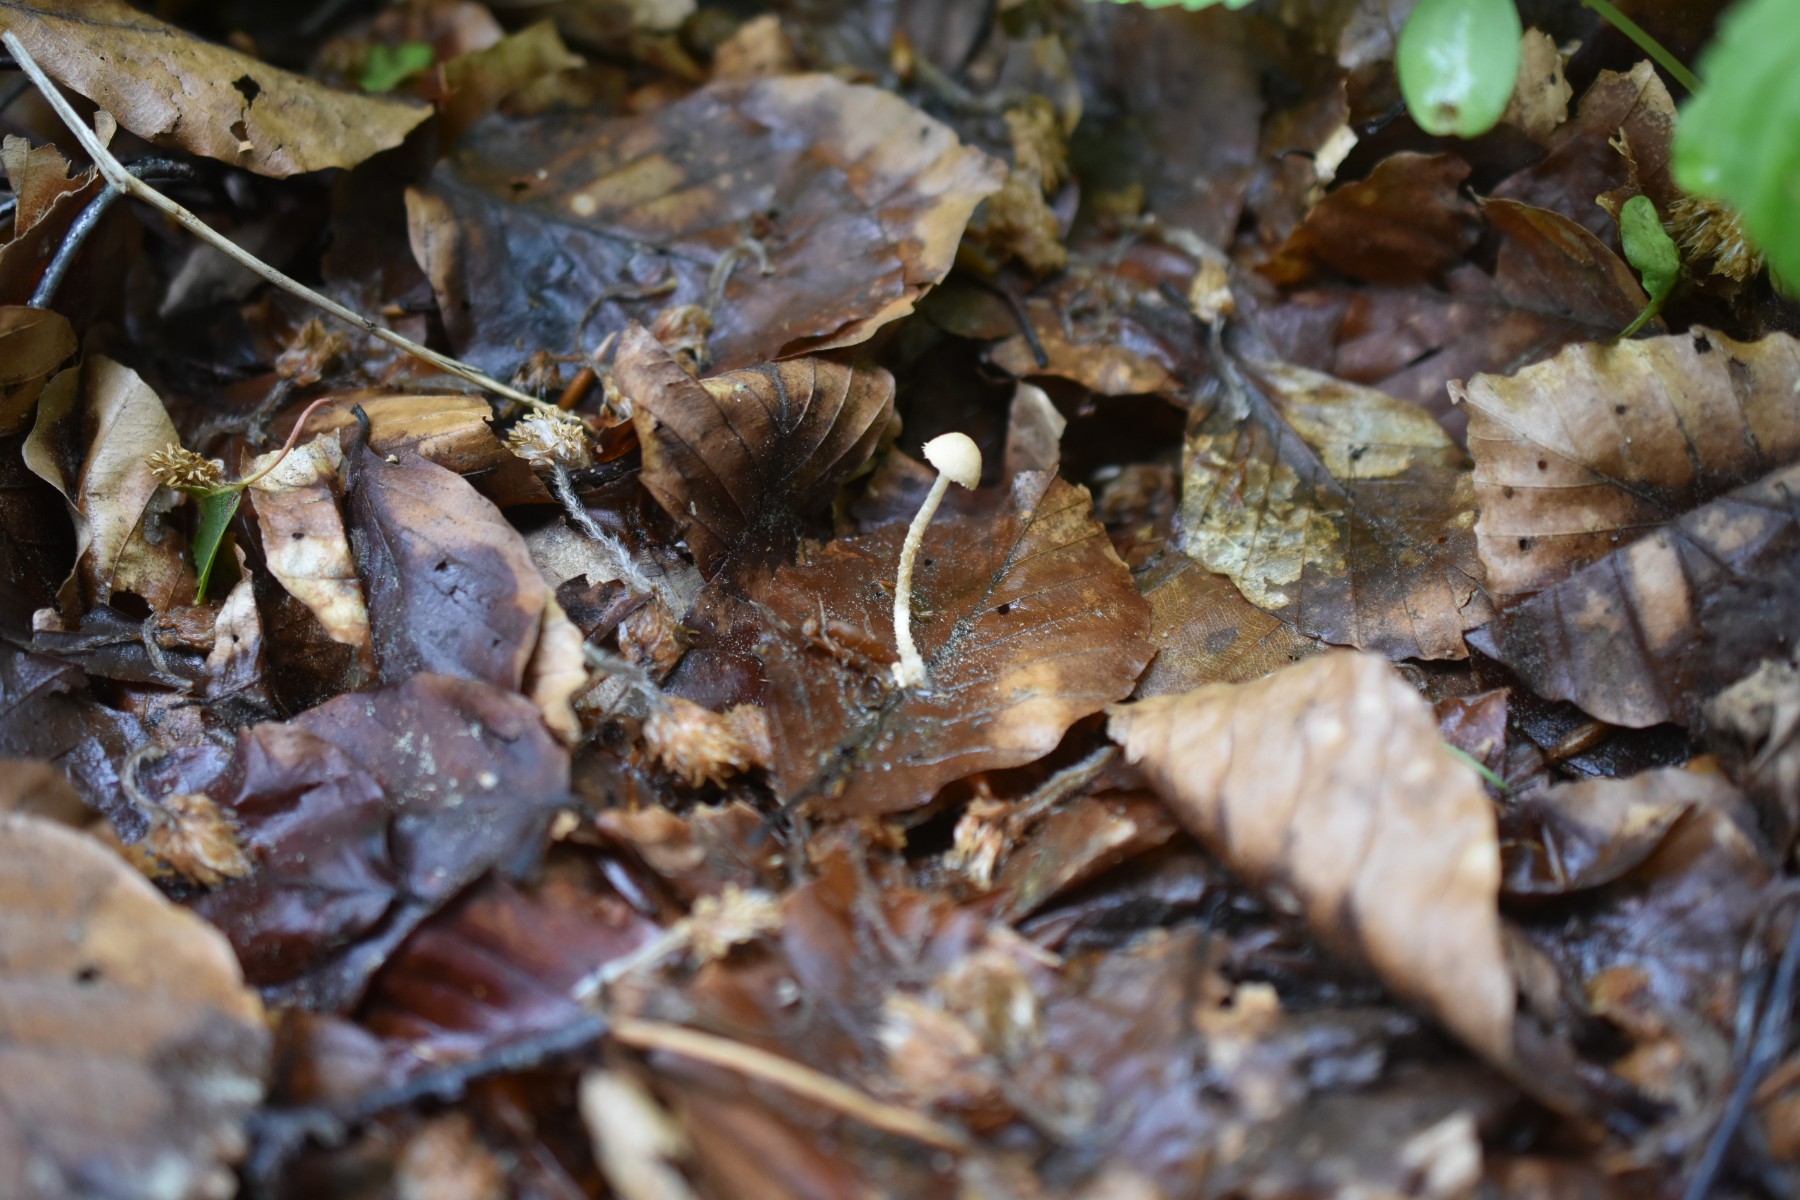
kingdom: Fungi
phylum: Basidiomycota
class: Agaricomycetes
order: Agaricales
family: Tubariaceae
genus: Flammulaster
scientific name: Flammulaster
